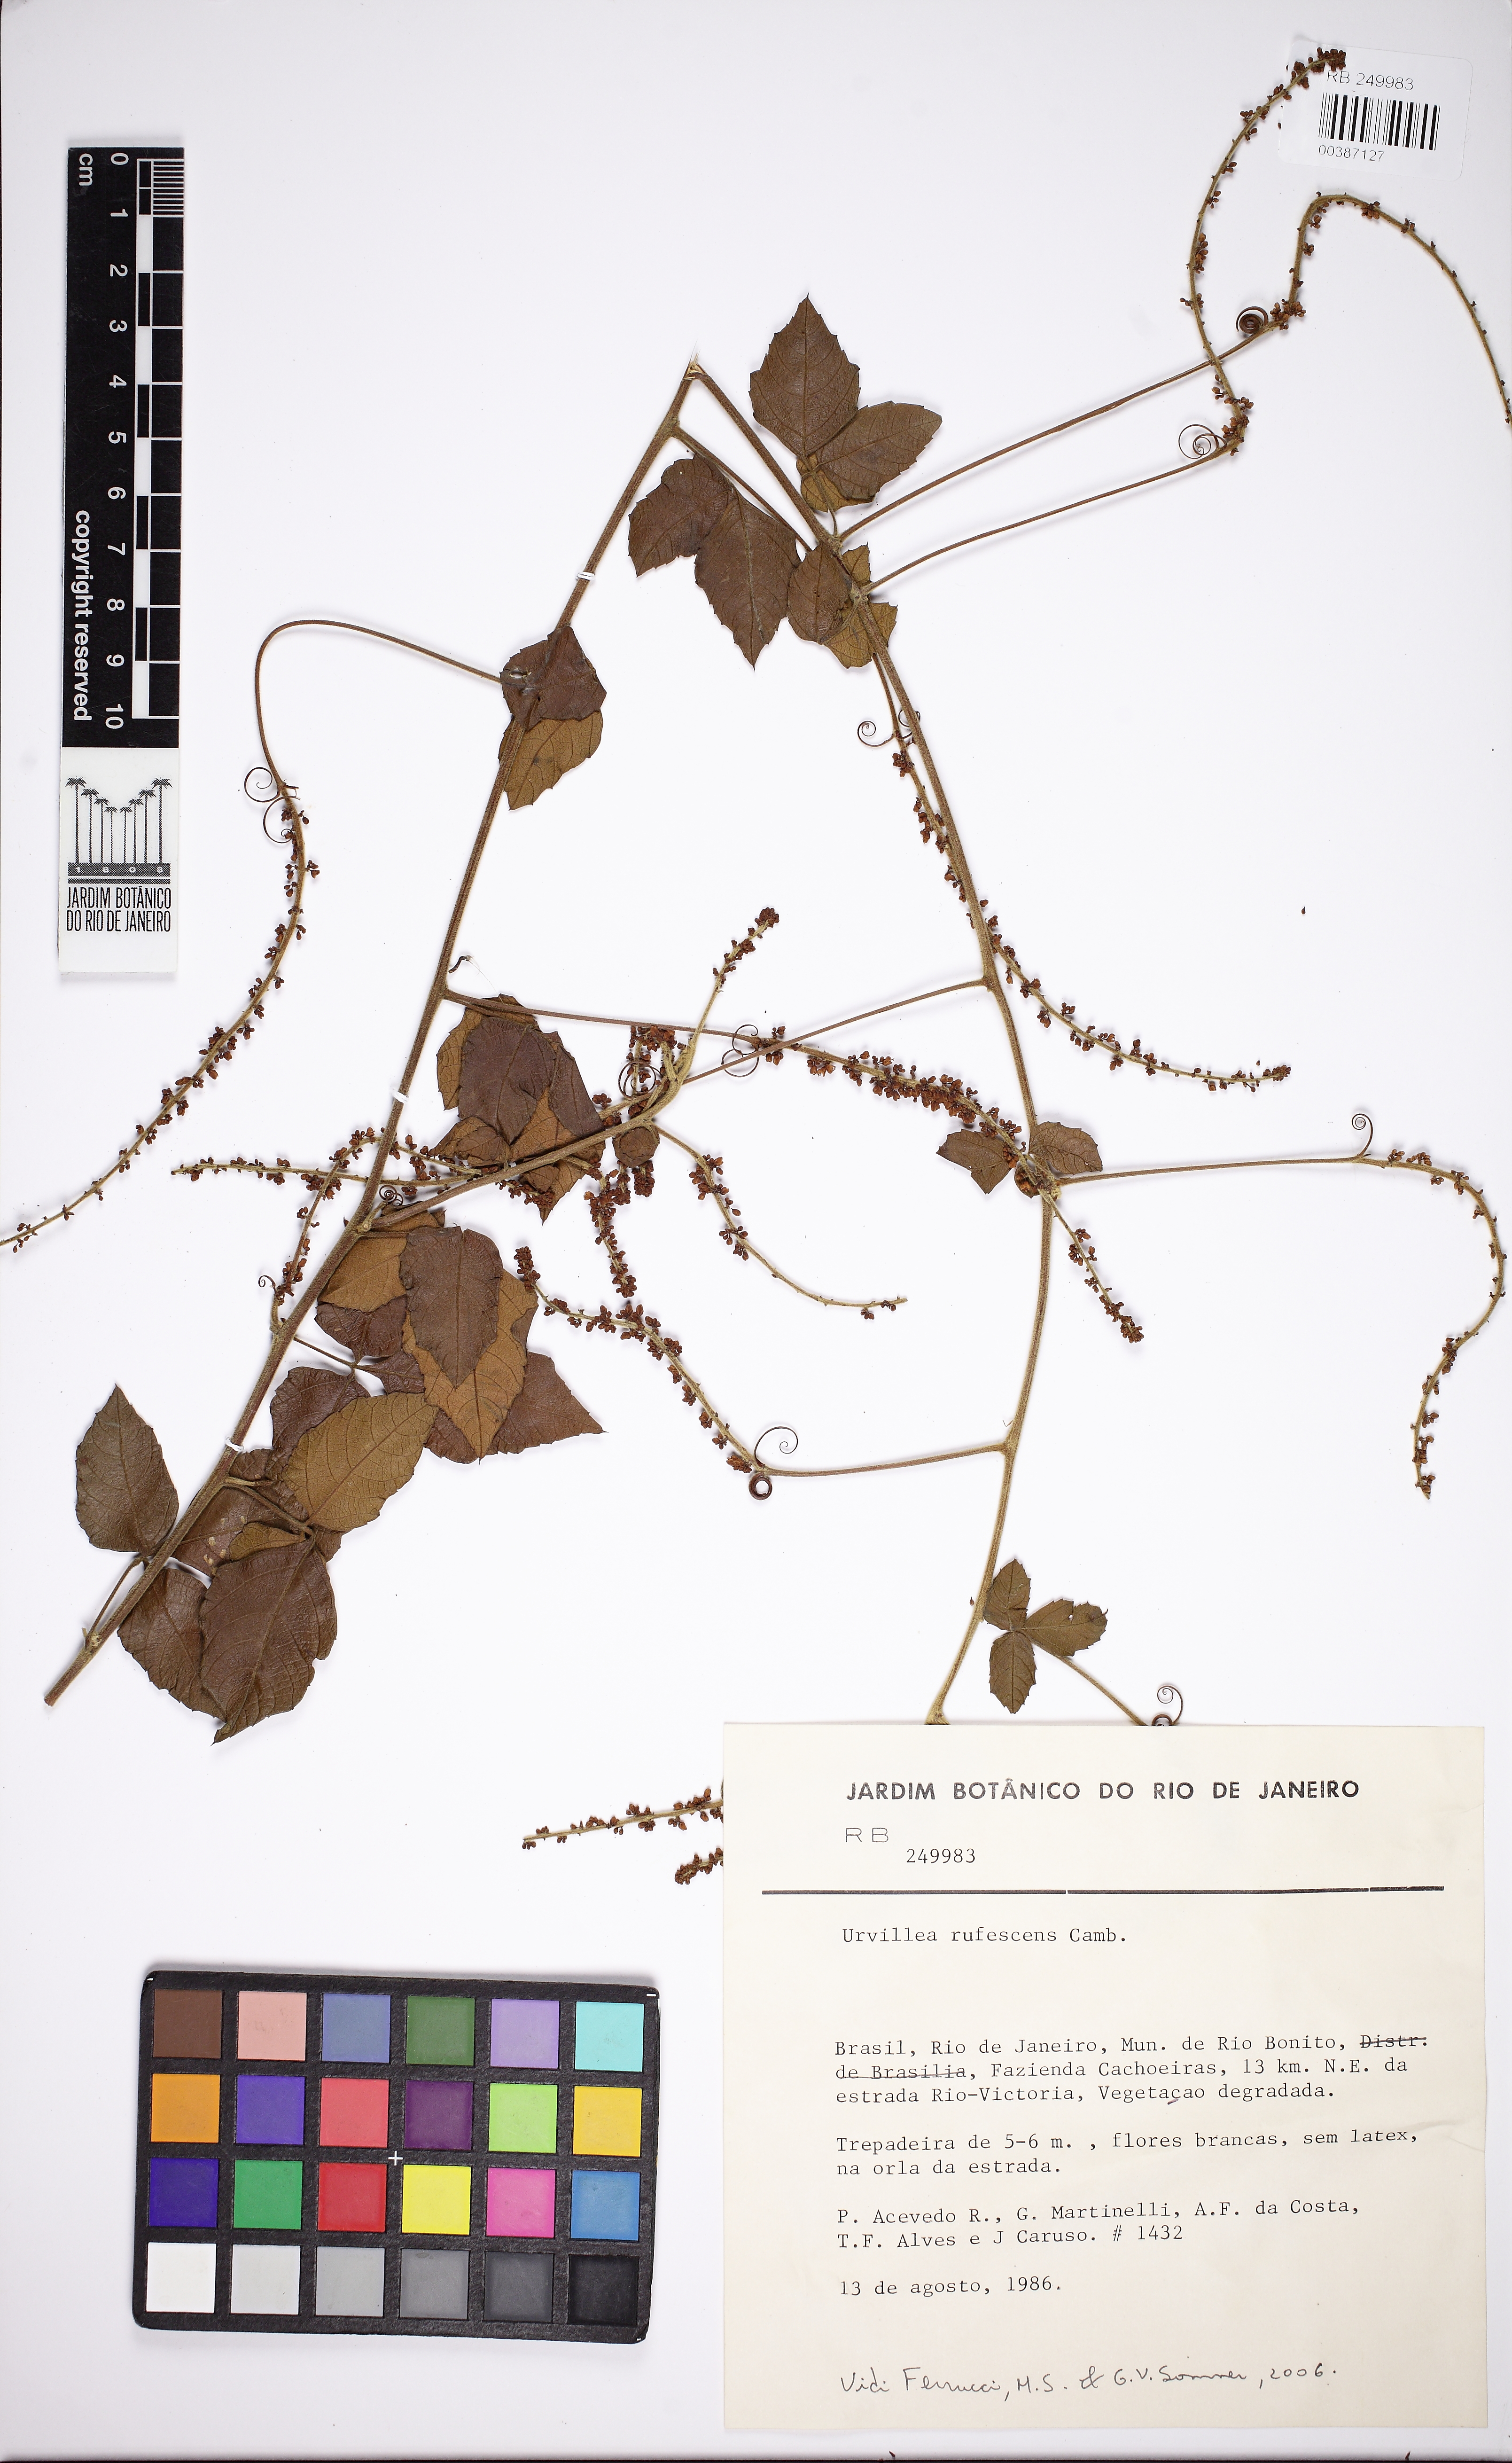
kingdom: Plantae
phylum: Tracheophyta
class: Magnoliopsida
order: Sapindales
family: Sapindaceae
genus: Urvillea
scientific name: Urvillea rufescens
